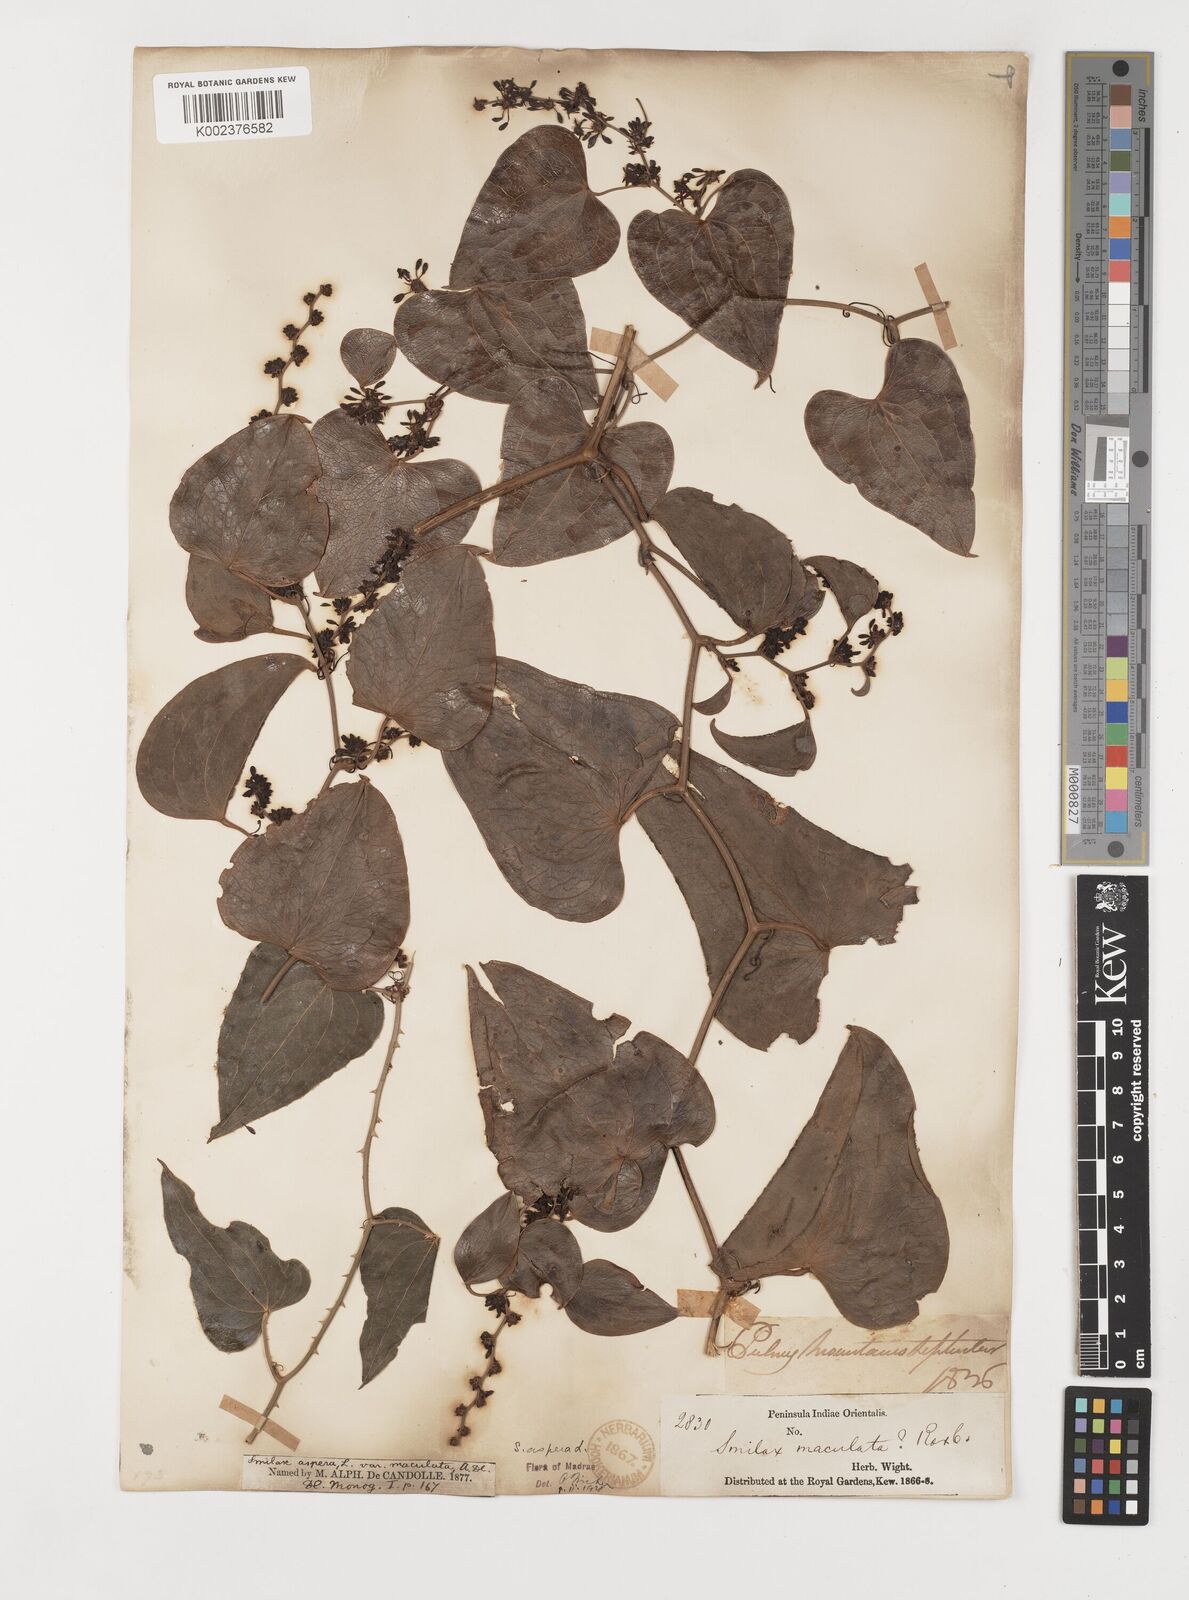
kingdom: Plantae
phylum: Tracheophyta
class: Liliopsida
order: Liliales
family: Smilacaceae
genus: Smilax
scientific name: Smilax aspera
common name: Common smilax
